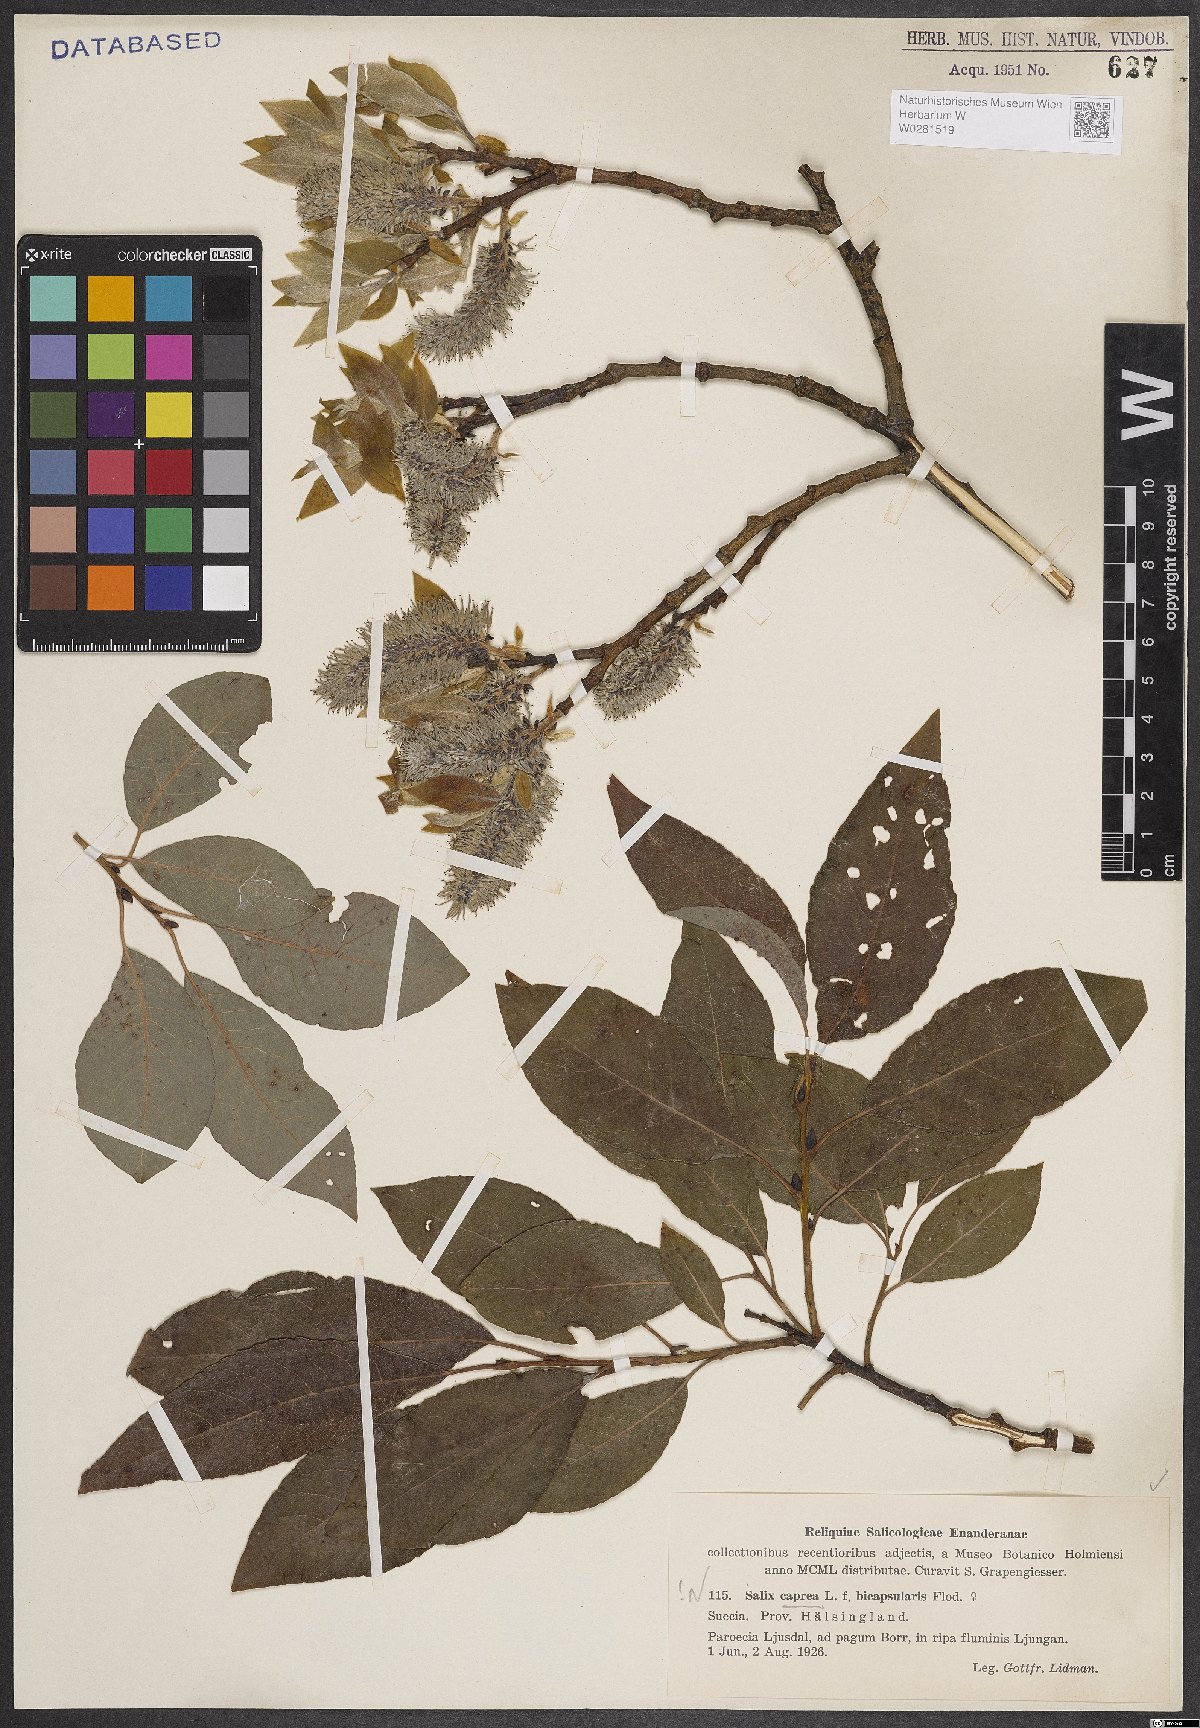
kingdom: Plantae
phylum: Tracheophyta
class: Magnoliopsida
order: Malpighiales
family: Salicaceae
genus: Salix
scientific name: Salix caprea
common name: Goat willow
